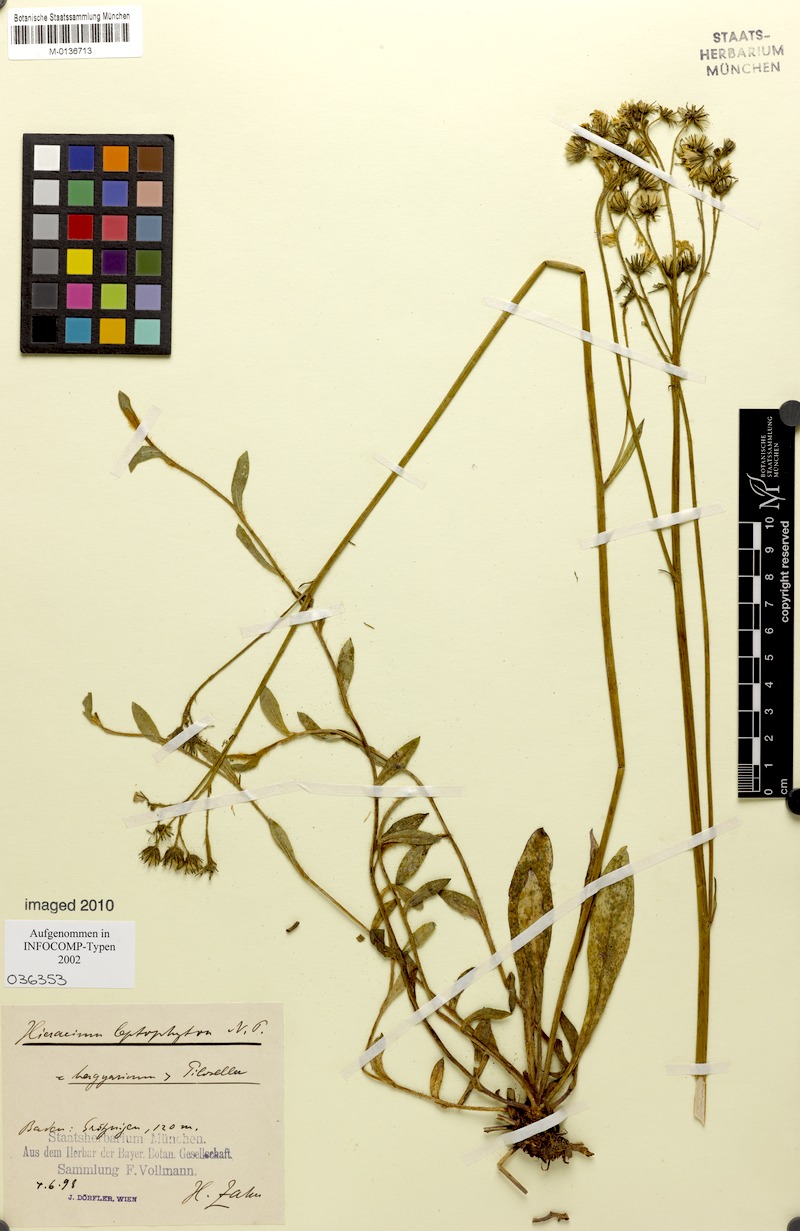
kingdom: Plantae
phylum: Tracheophyta
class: Magnoliopsida
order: Asterales
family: Asteraceae
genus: Pilosella
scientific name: Pilosella leptophyton
